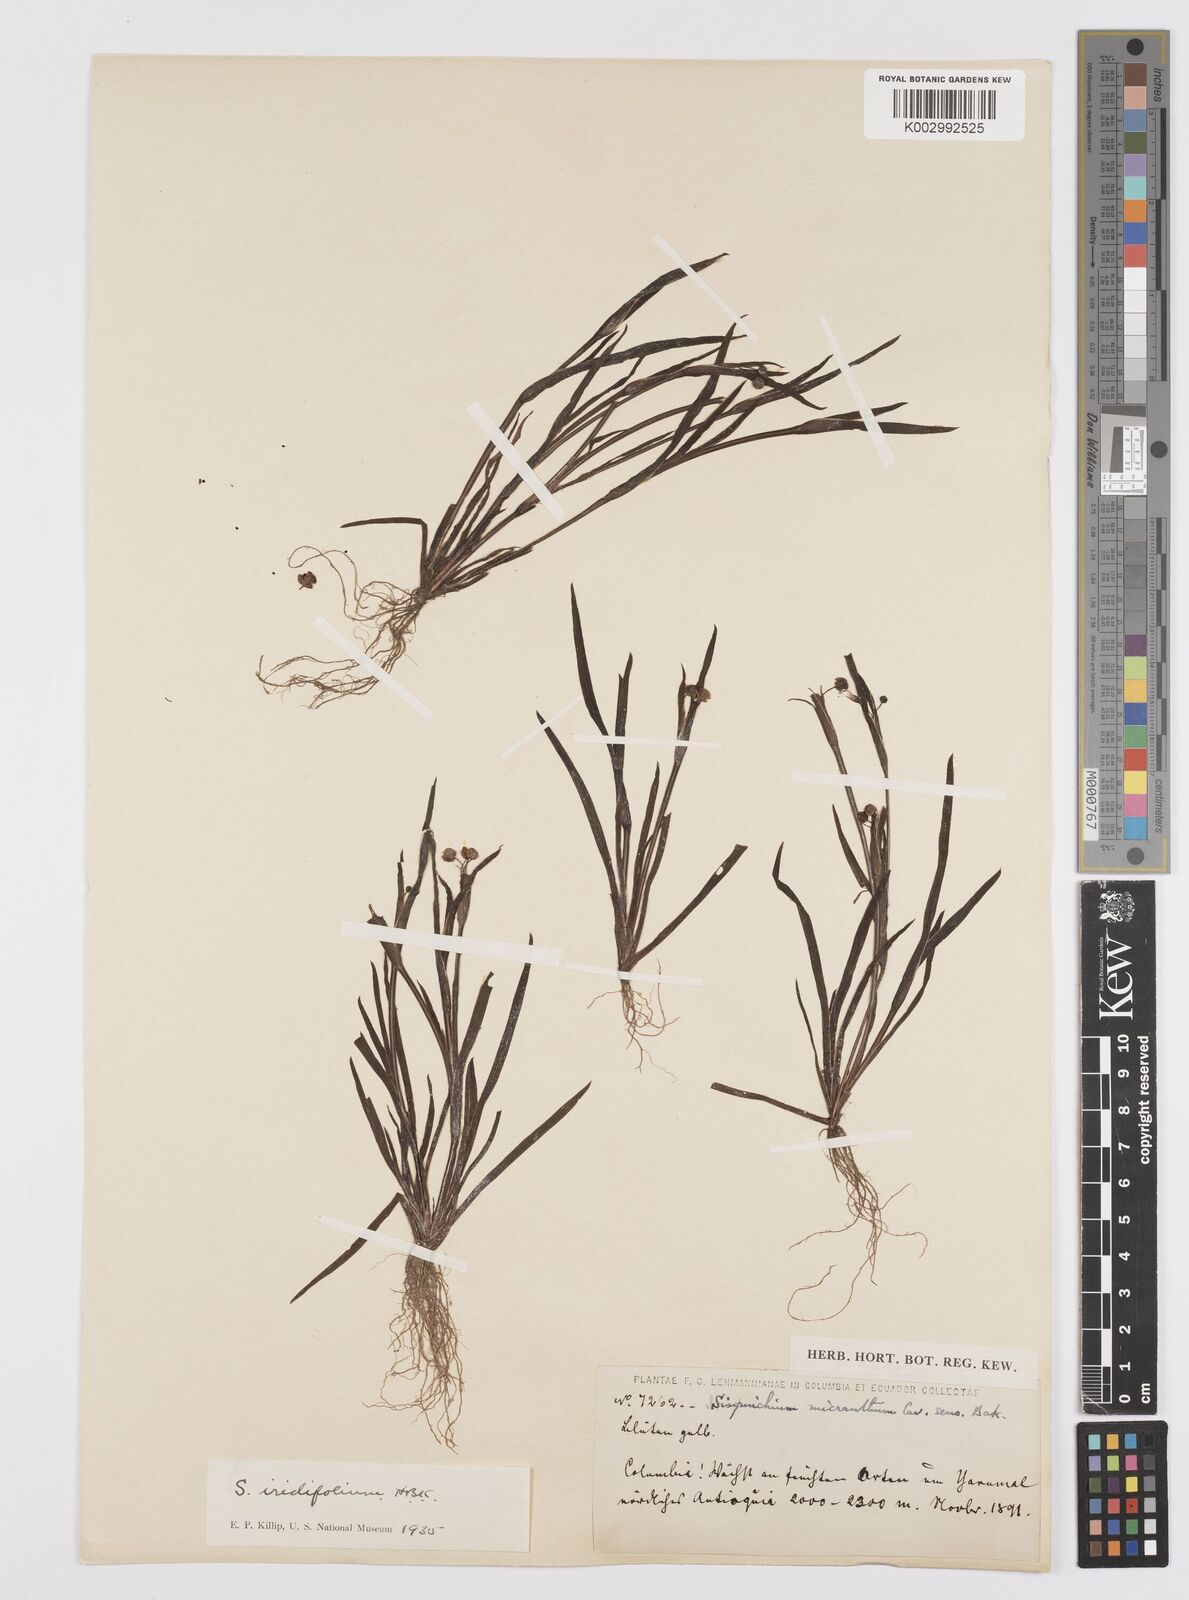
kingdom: Plantae
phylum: Tracheophyta
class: Liliopsida
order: Asparagales
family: Iridaceae
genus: Sisyrinchium
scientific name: Sisyrinchium micranthum
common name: Bermuda pigroot
